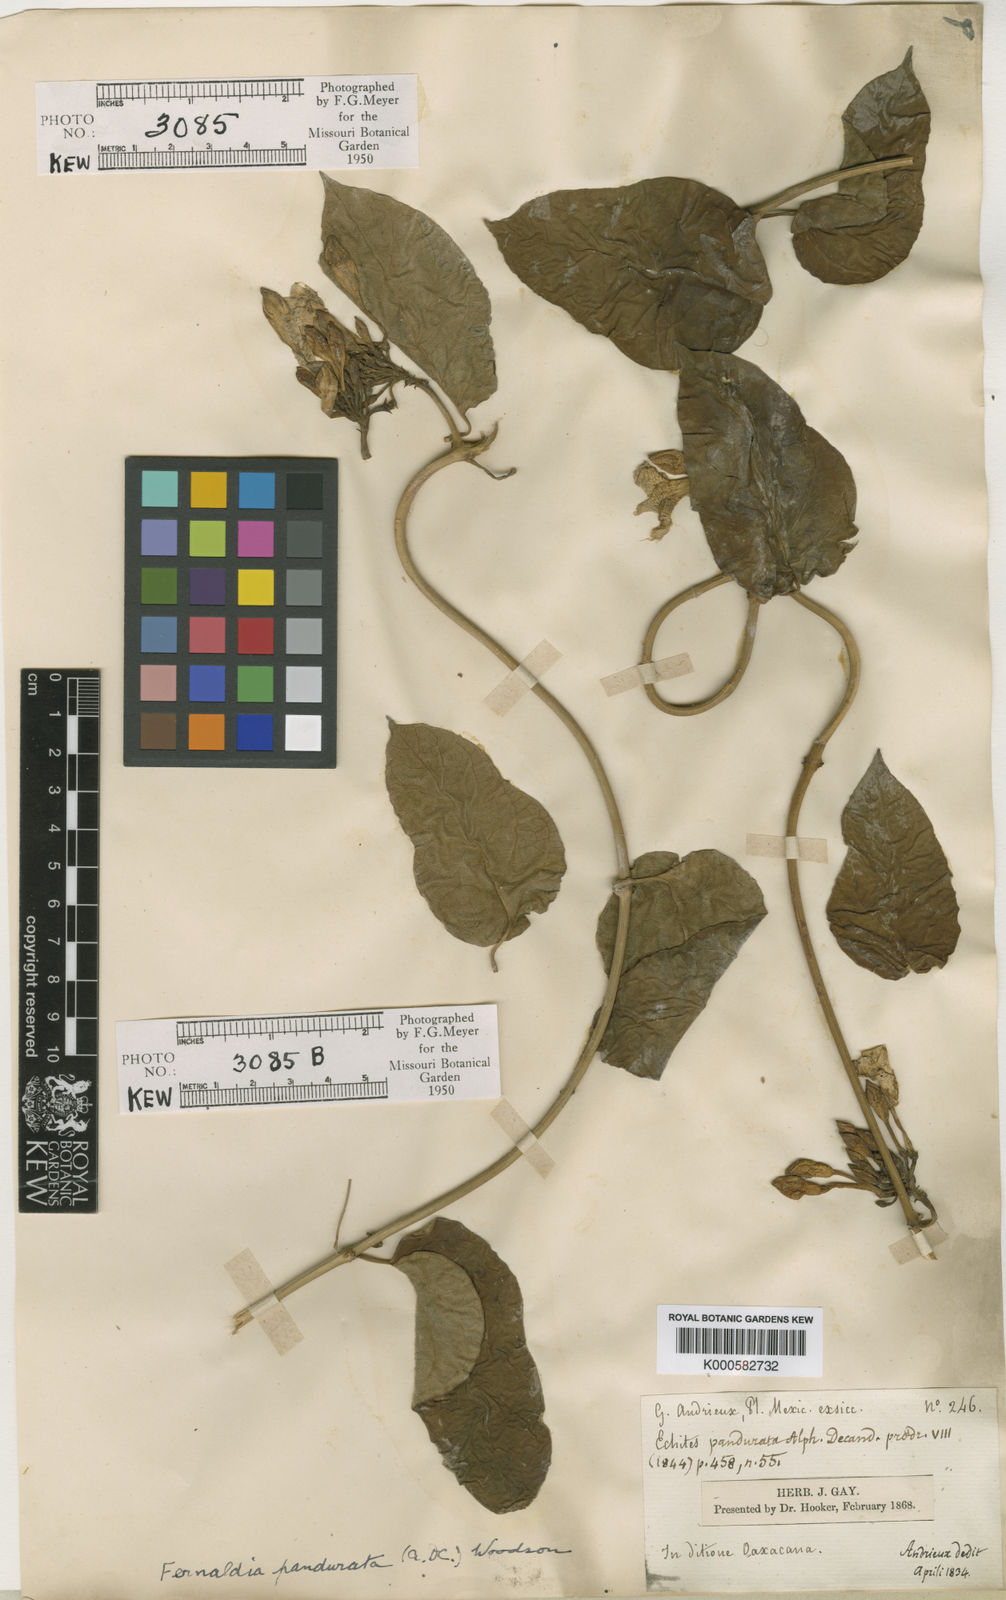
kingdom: Plantae
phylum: Tracheophyta
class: Magnoliopsida
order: Gentianales
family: Apocynaceae
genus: Echites
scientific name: Echites panduratus
